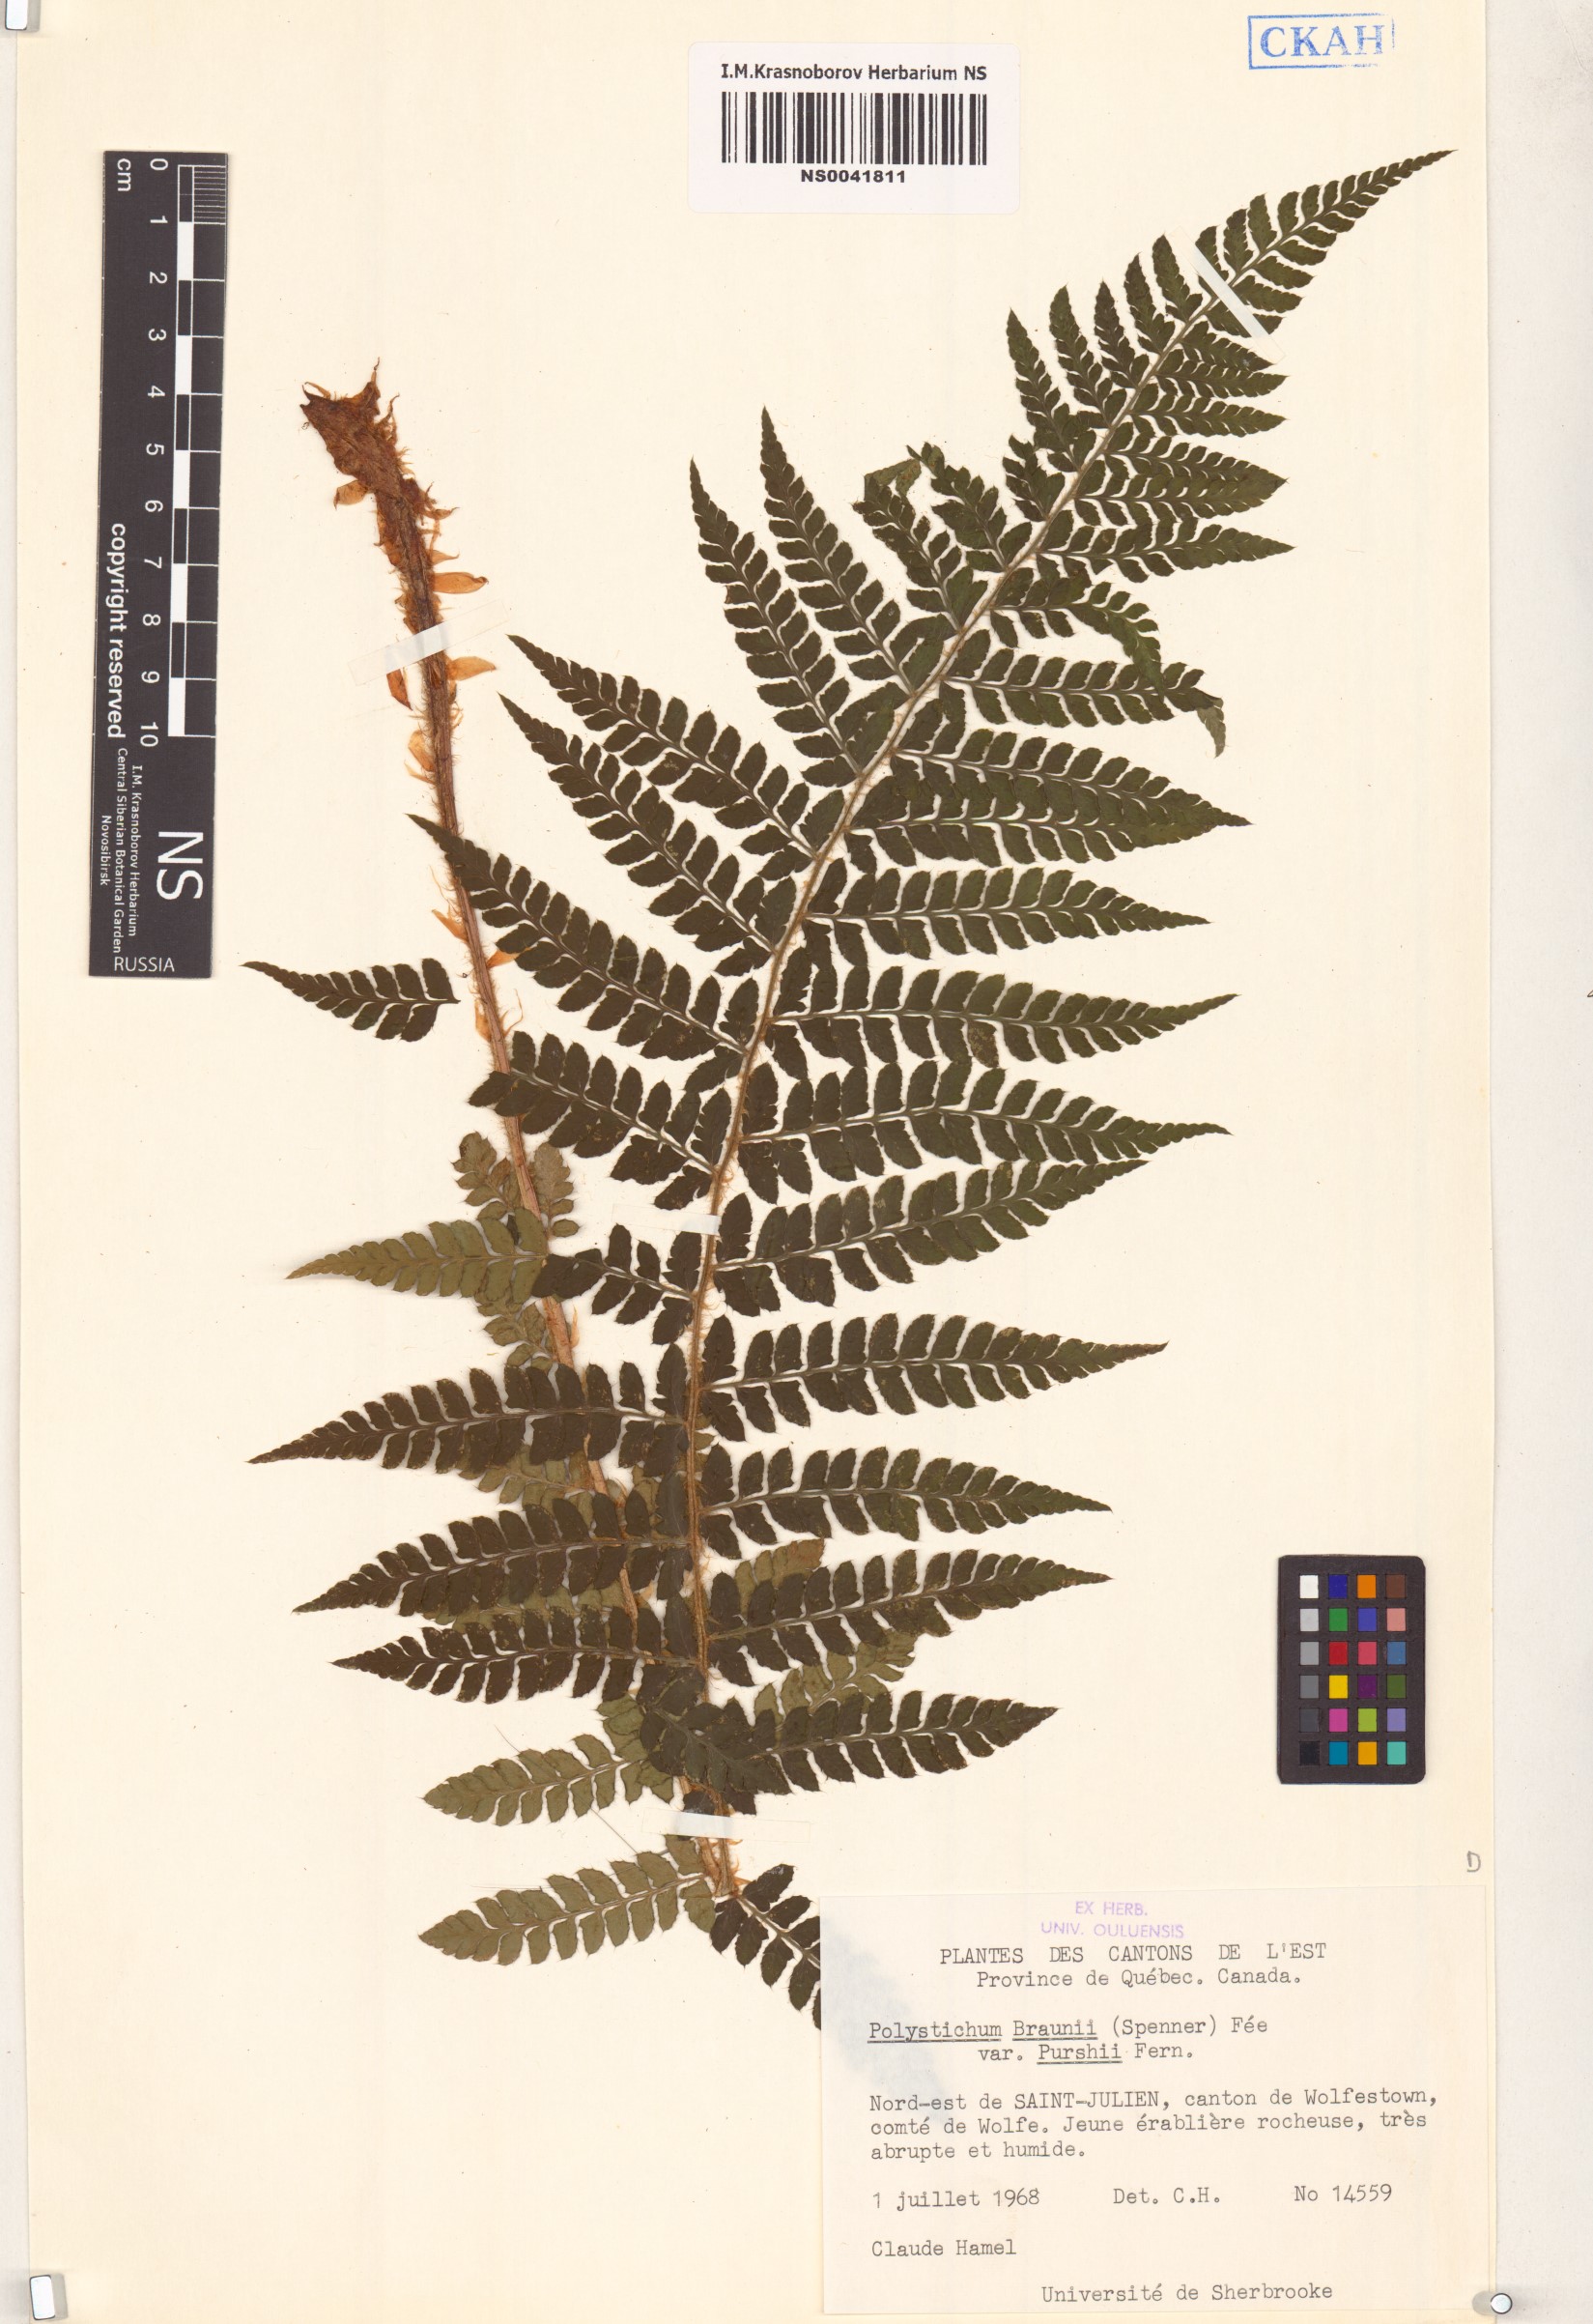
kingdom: Plantae
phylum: Tracheophyta
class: Polypodiopsida
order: Polypodiales
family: Dryopteridaceae
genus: Polystichum
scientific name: Polystichum braunii
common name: Braun's holly fern
